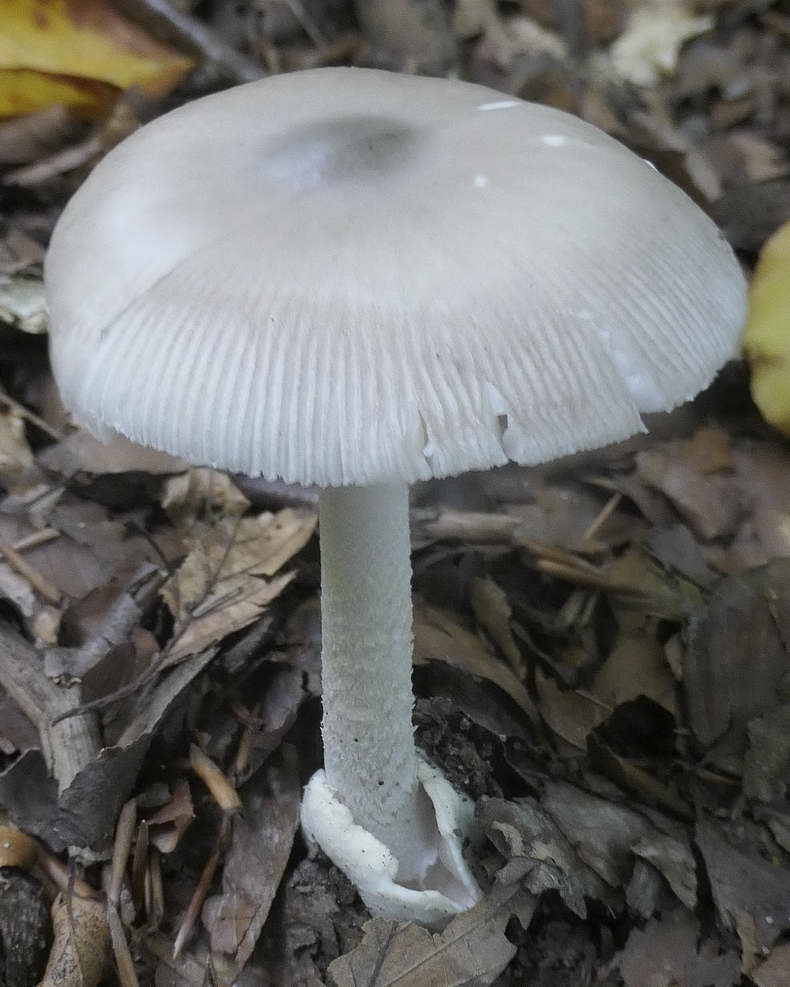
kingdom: Fungi
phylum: Basidiomycota
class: Agaricomycetes
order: Agaricales
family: Amanitaceae
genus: Amanita
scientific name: Amanita vaginata
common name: grå kam-fluesvamp
